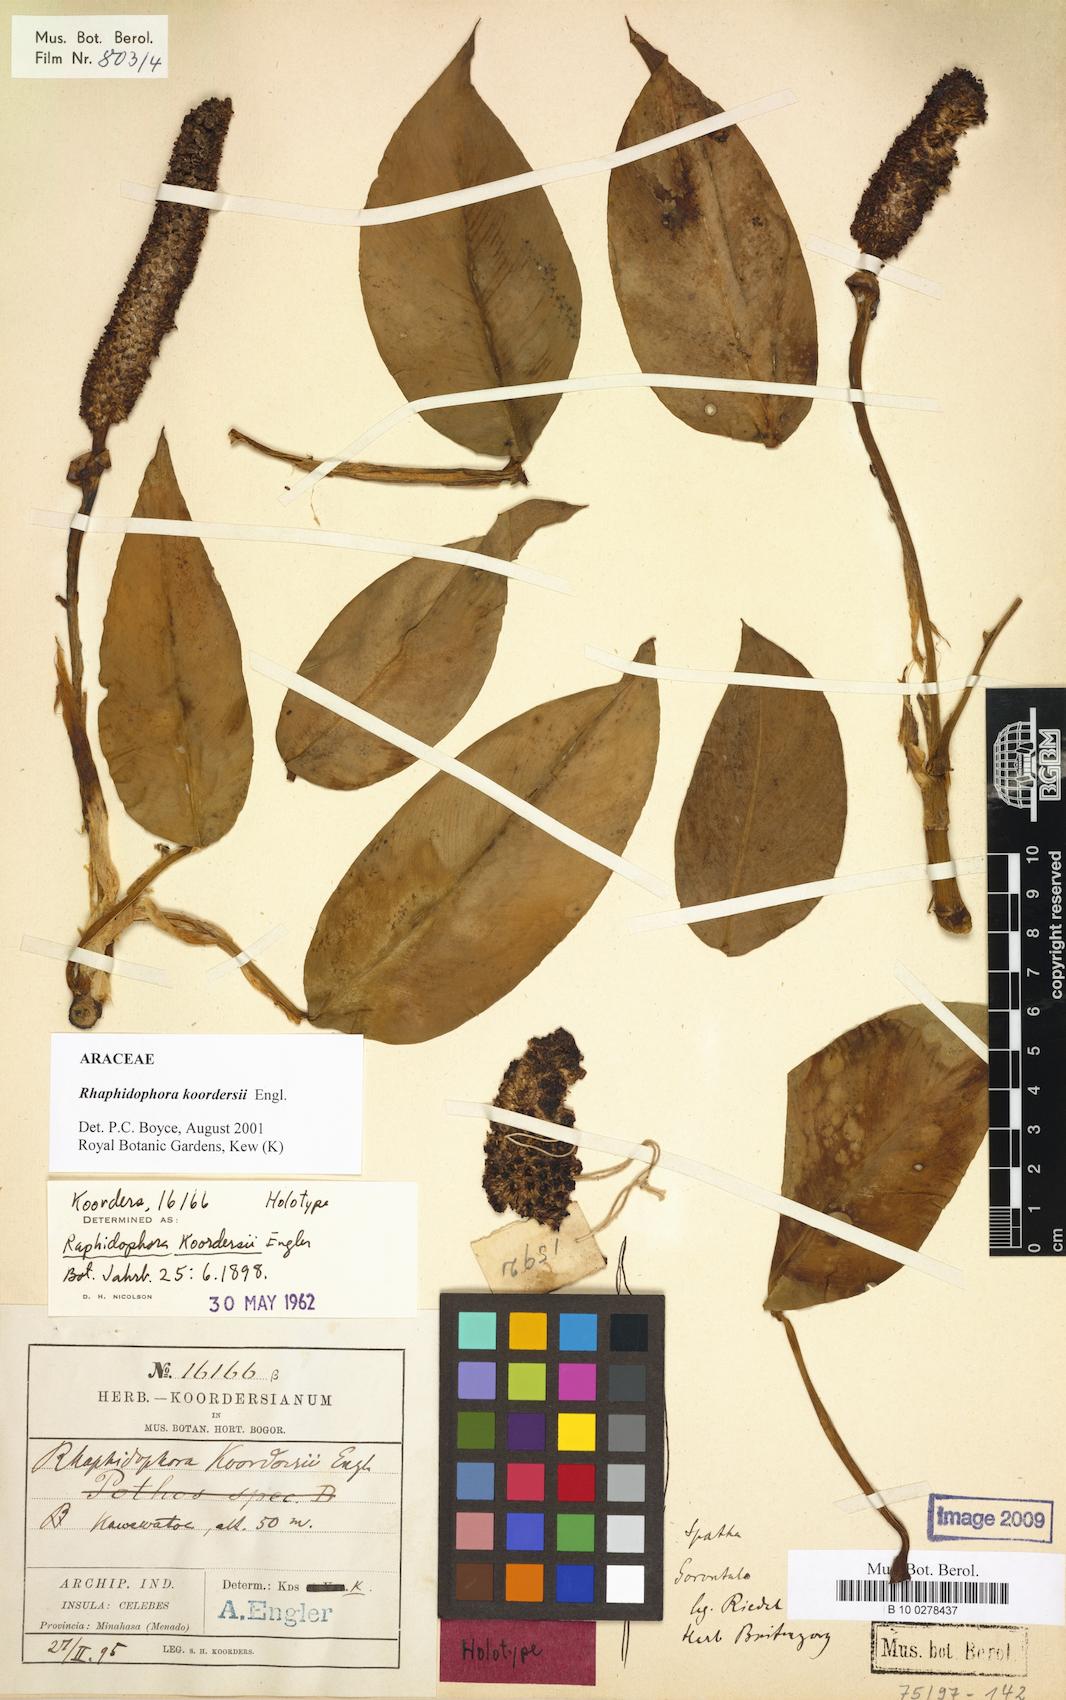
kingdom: Plantae
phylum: Tracheophyta
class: Liliopsida
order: Alismatales
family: Araceae
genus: Rhaphidophora
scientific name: Rhaphidophora koordersii
